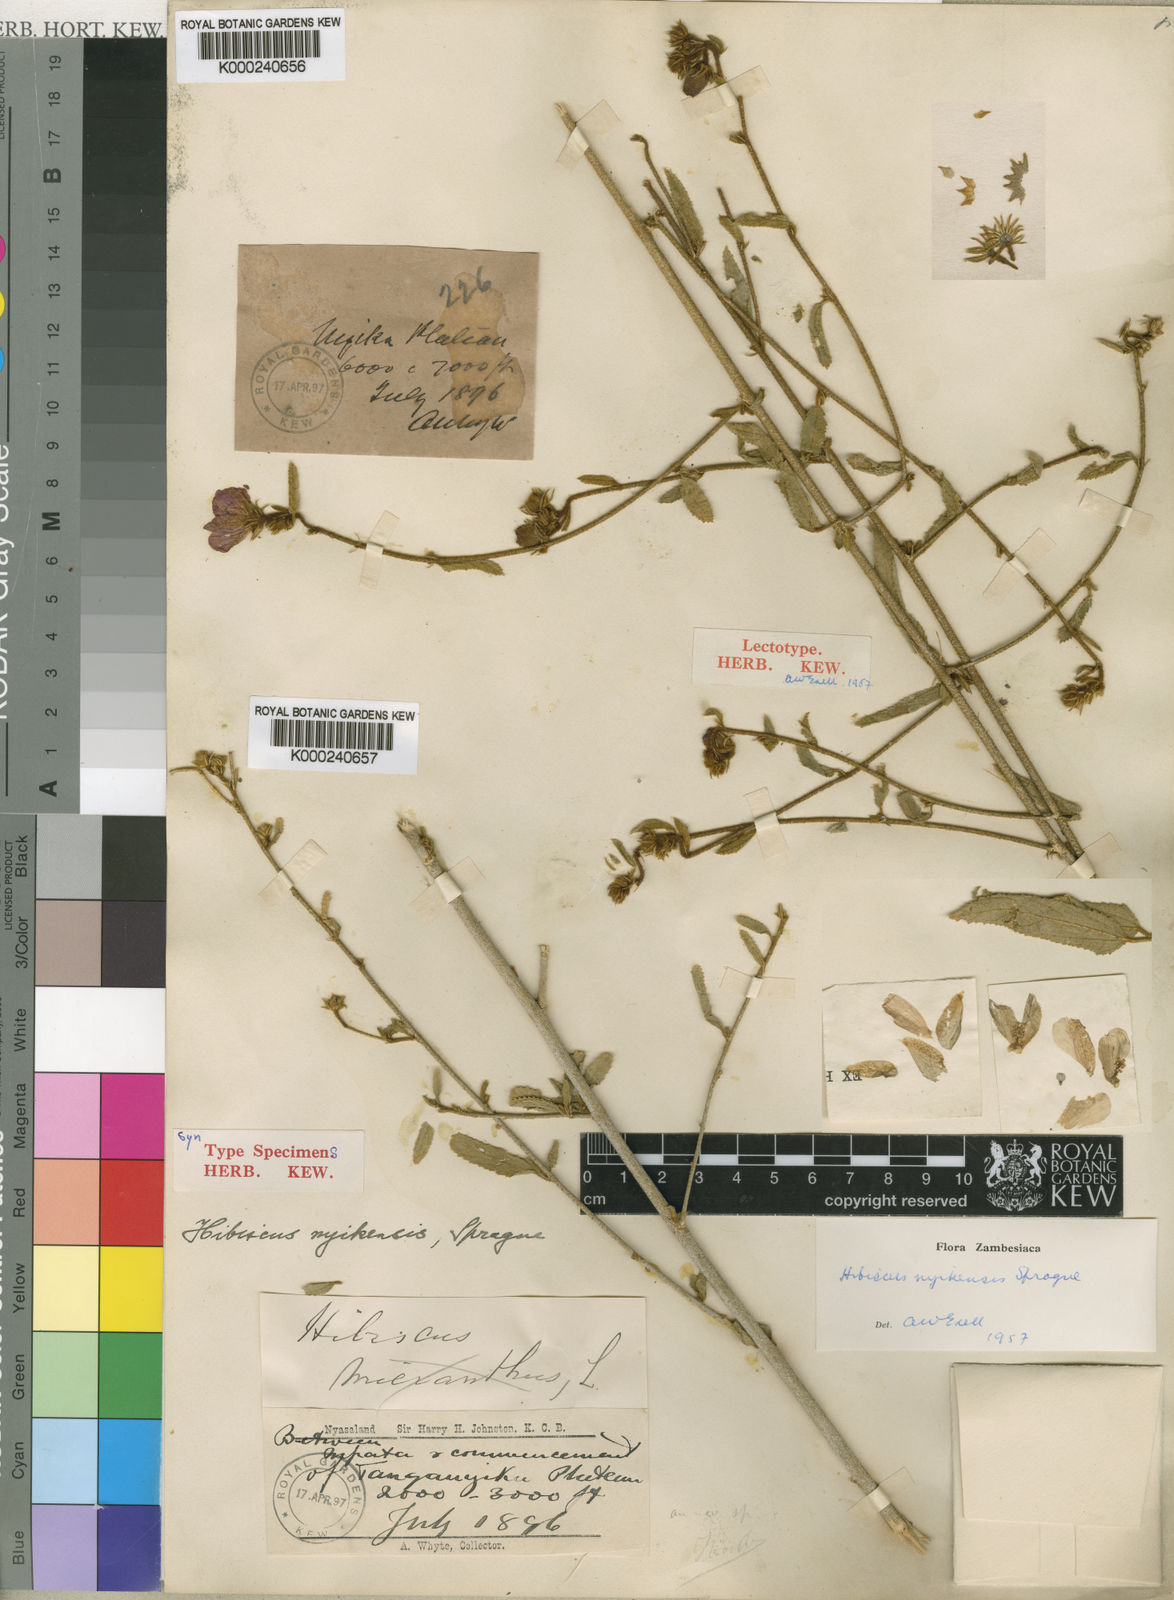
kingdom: Plantae
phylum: Tracheophyta
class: Magnoliopsida
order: Malvales
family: Malvaceae
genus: Hibiscus
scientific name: Hibiscus debeerstii
